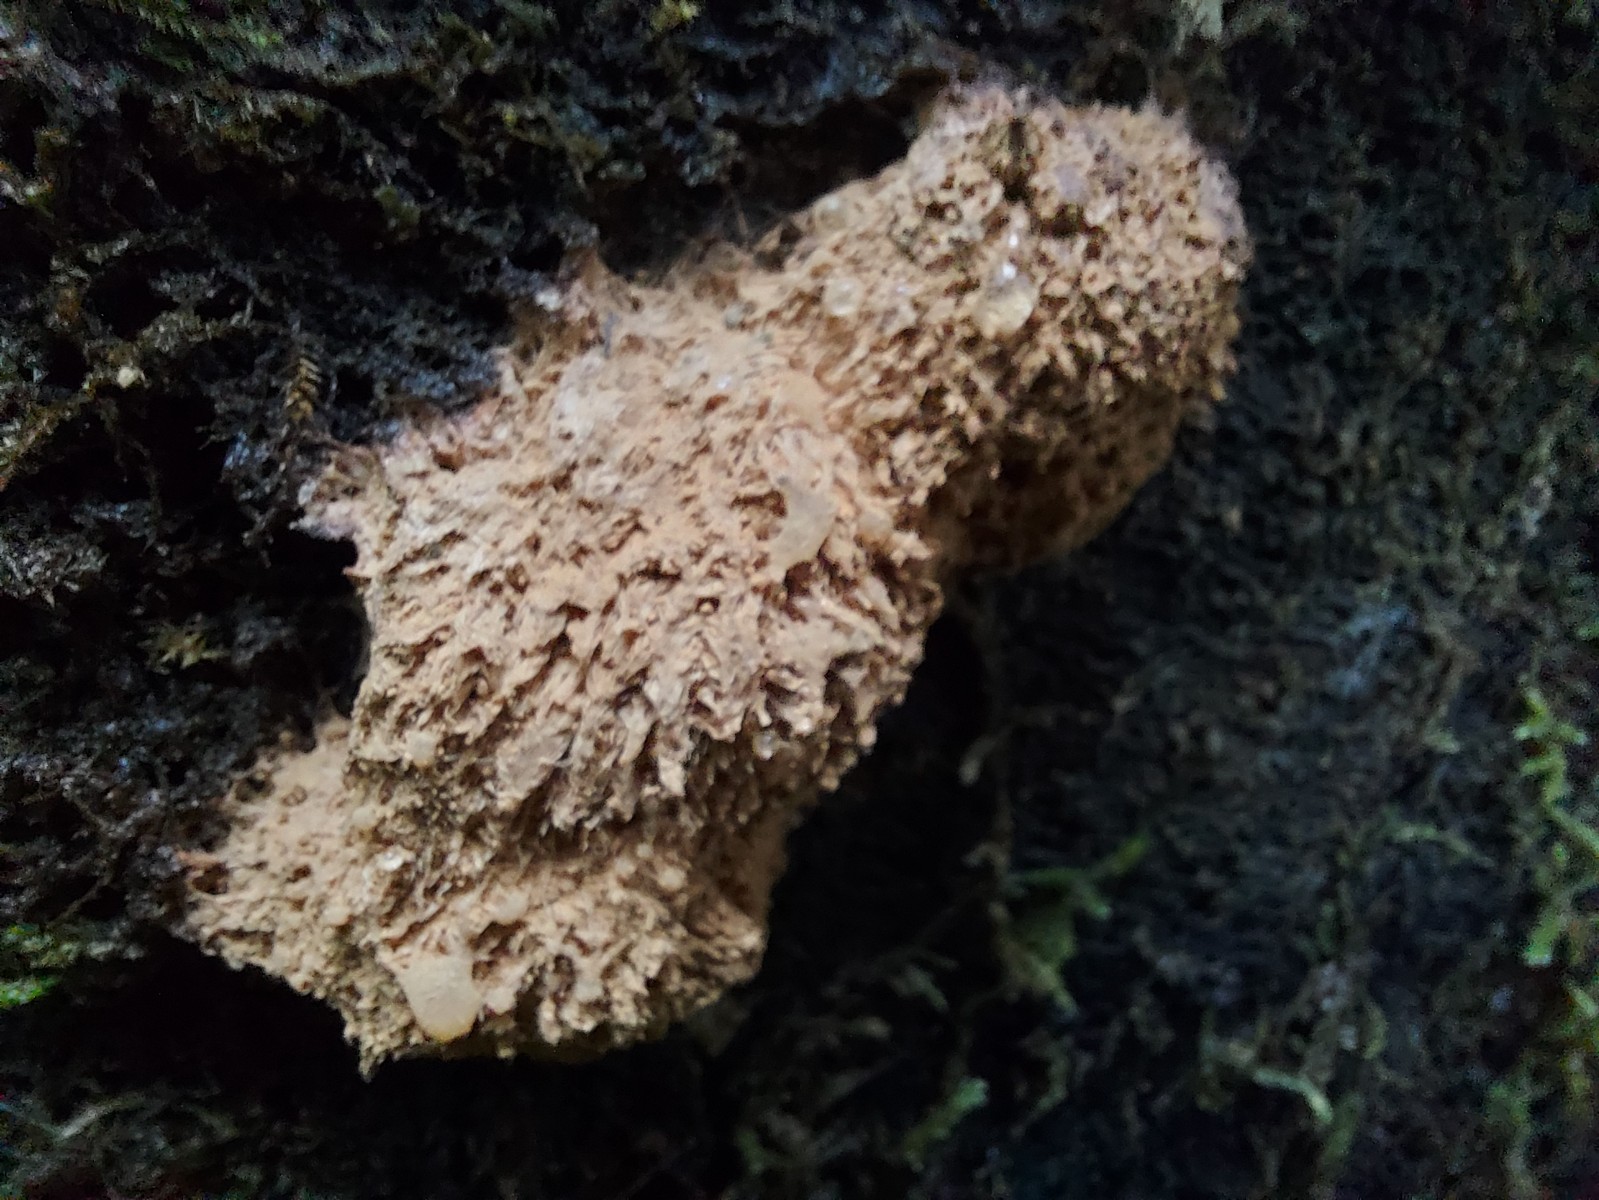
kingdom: Fungi
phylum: Basidiomycota
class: Agaricomycetes
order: Polyporales
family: Dacryobolaceae
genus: Postia
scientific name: Postia ptychogaster
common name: støvende kødporesvamp
